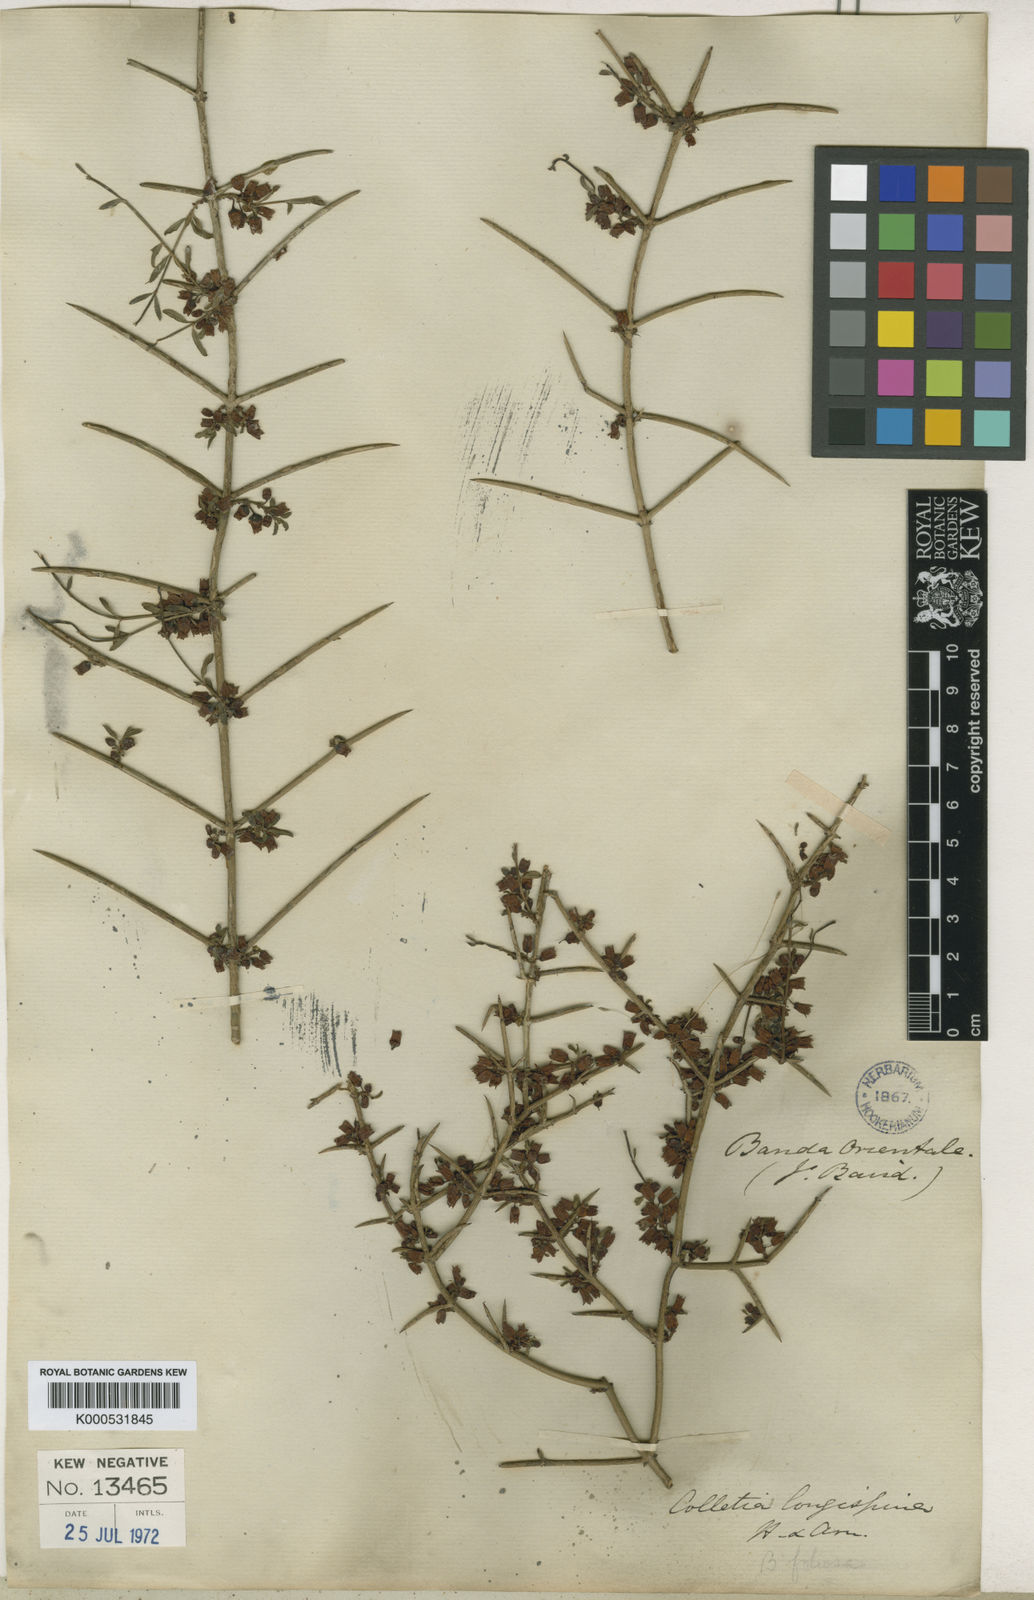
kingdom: Plantae
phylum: Tracheophyta
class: Magnoliopsida
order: Rosales
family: Rhamnaceae
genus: Discaria
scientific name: Discaria americana
